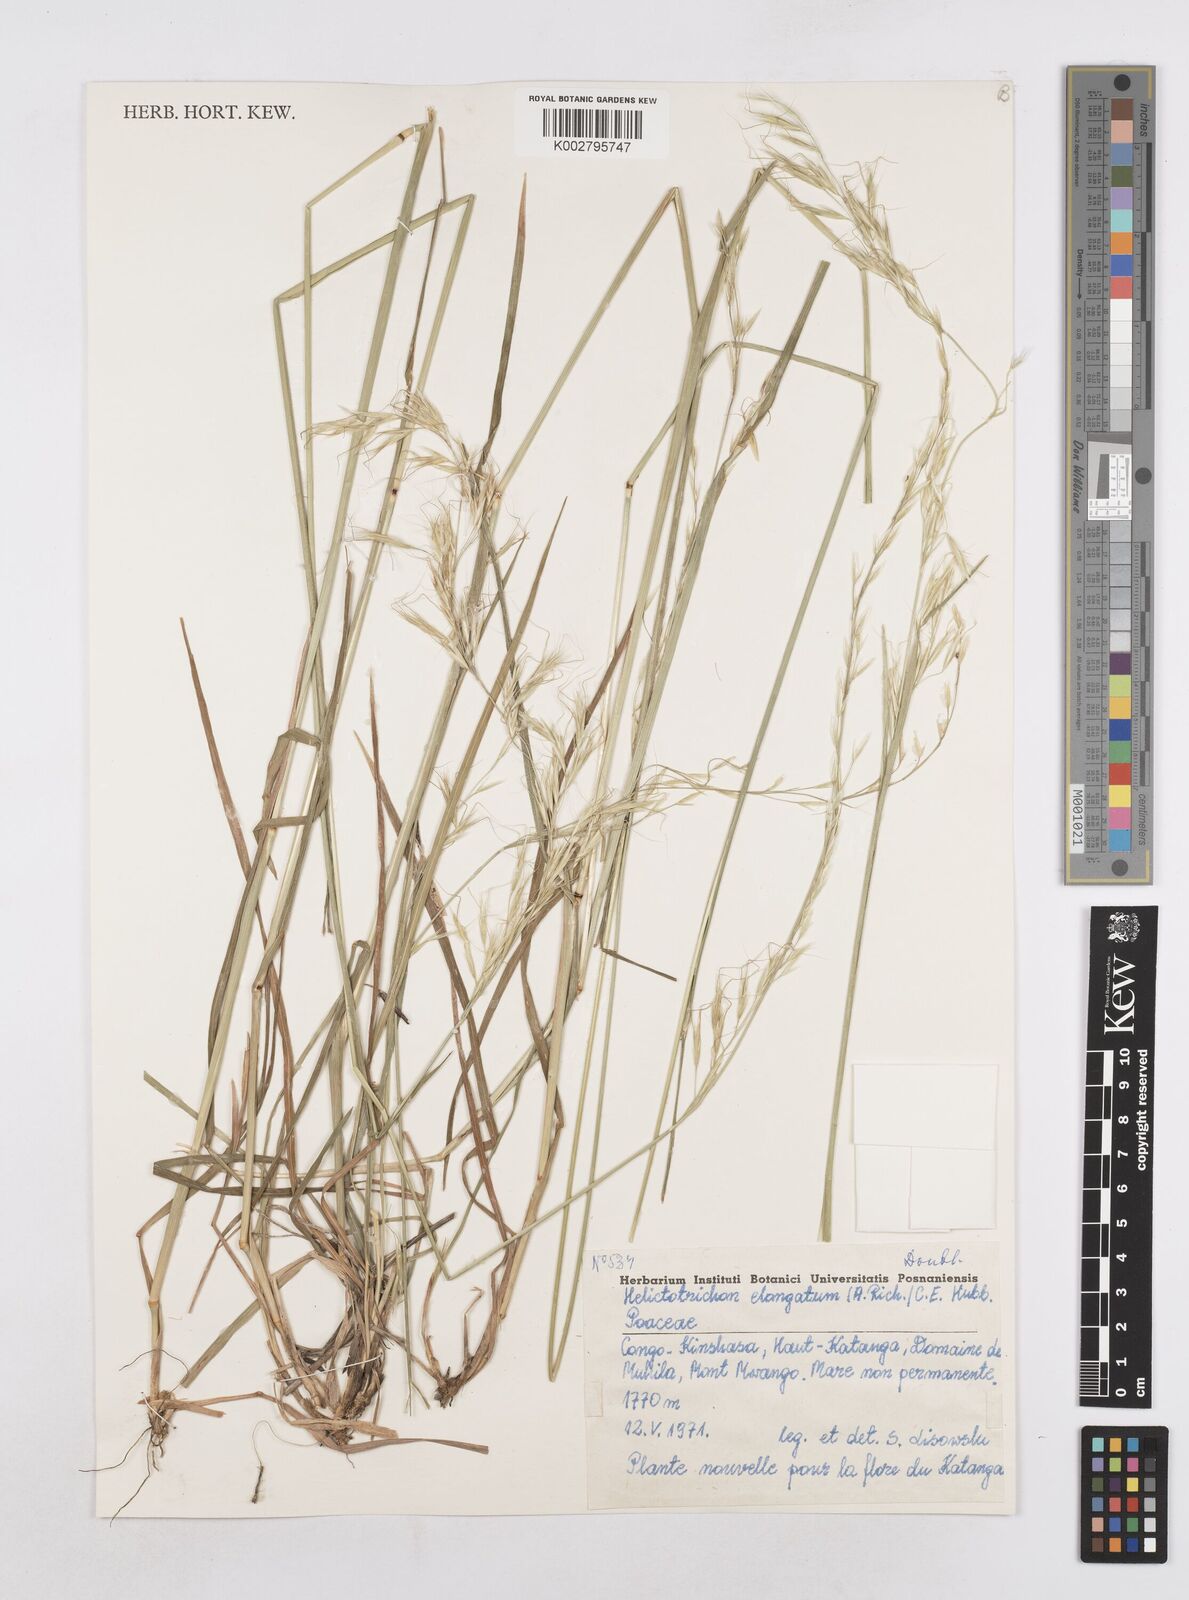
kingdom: Plantae
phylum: Tracheophyta
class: Liliopsida
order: Poales
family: Poaceae
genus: Trisetopsis
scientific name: Trisetopsis elongata
